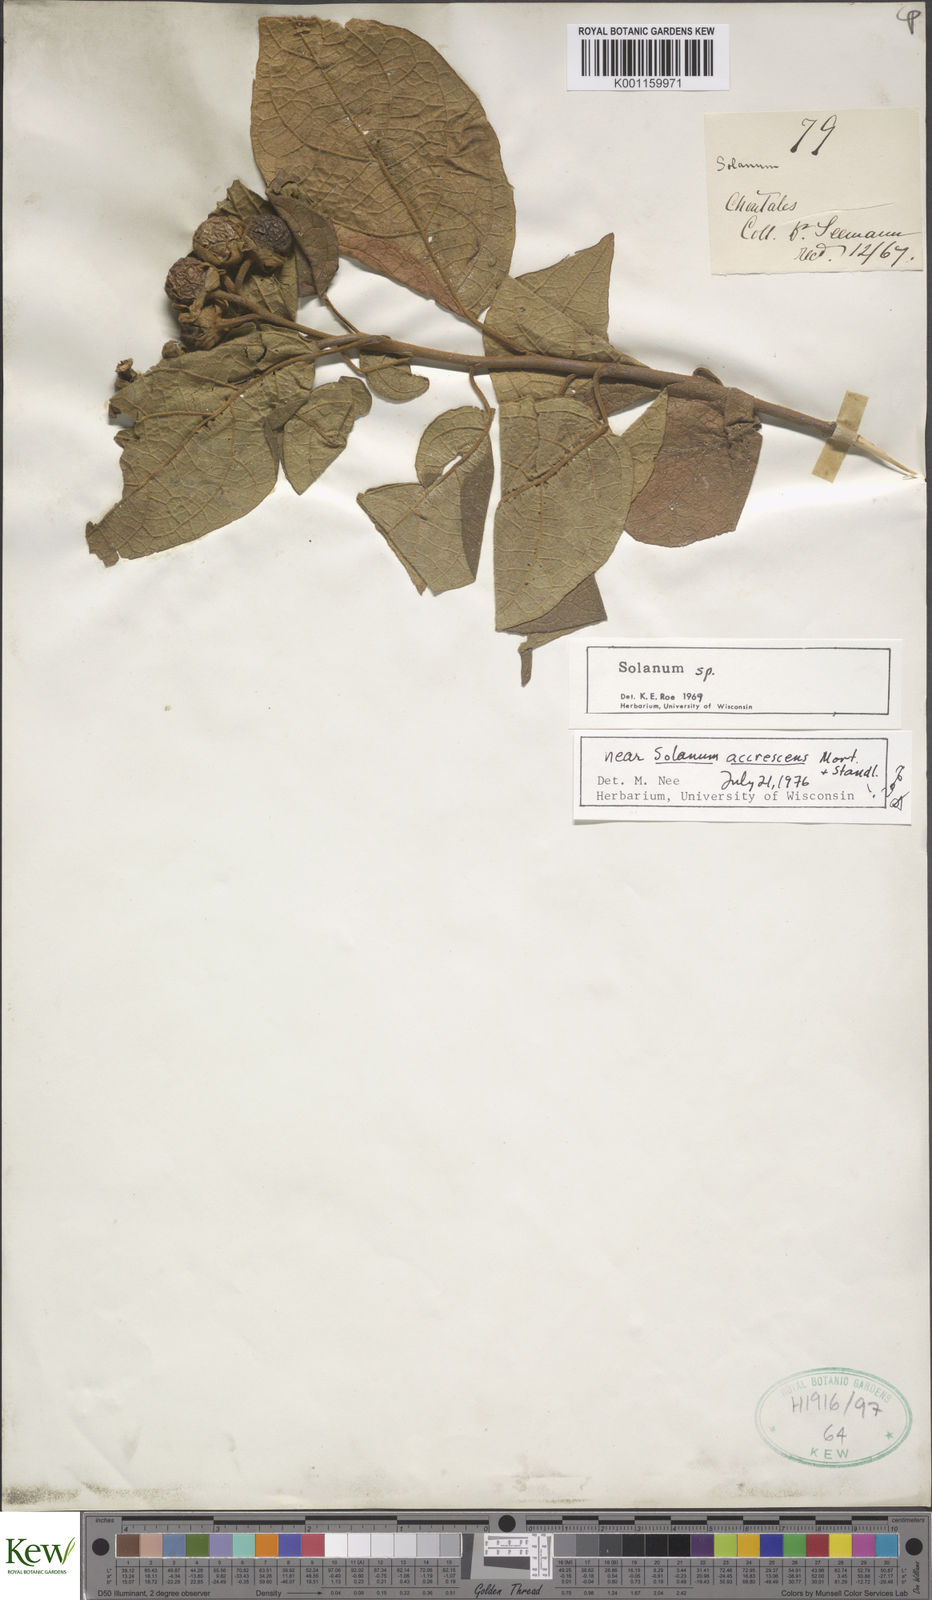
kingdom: Plantae
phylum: Tracheophyta
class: Magnoliopsida
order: Solanales
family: Solanaceae
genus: Solanum
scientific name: Solanum accrescens
